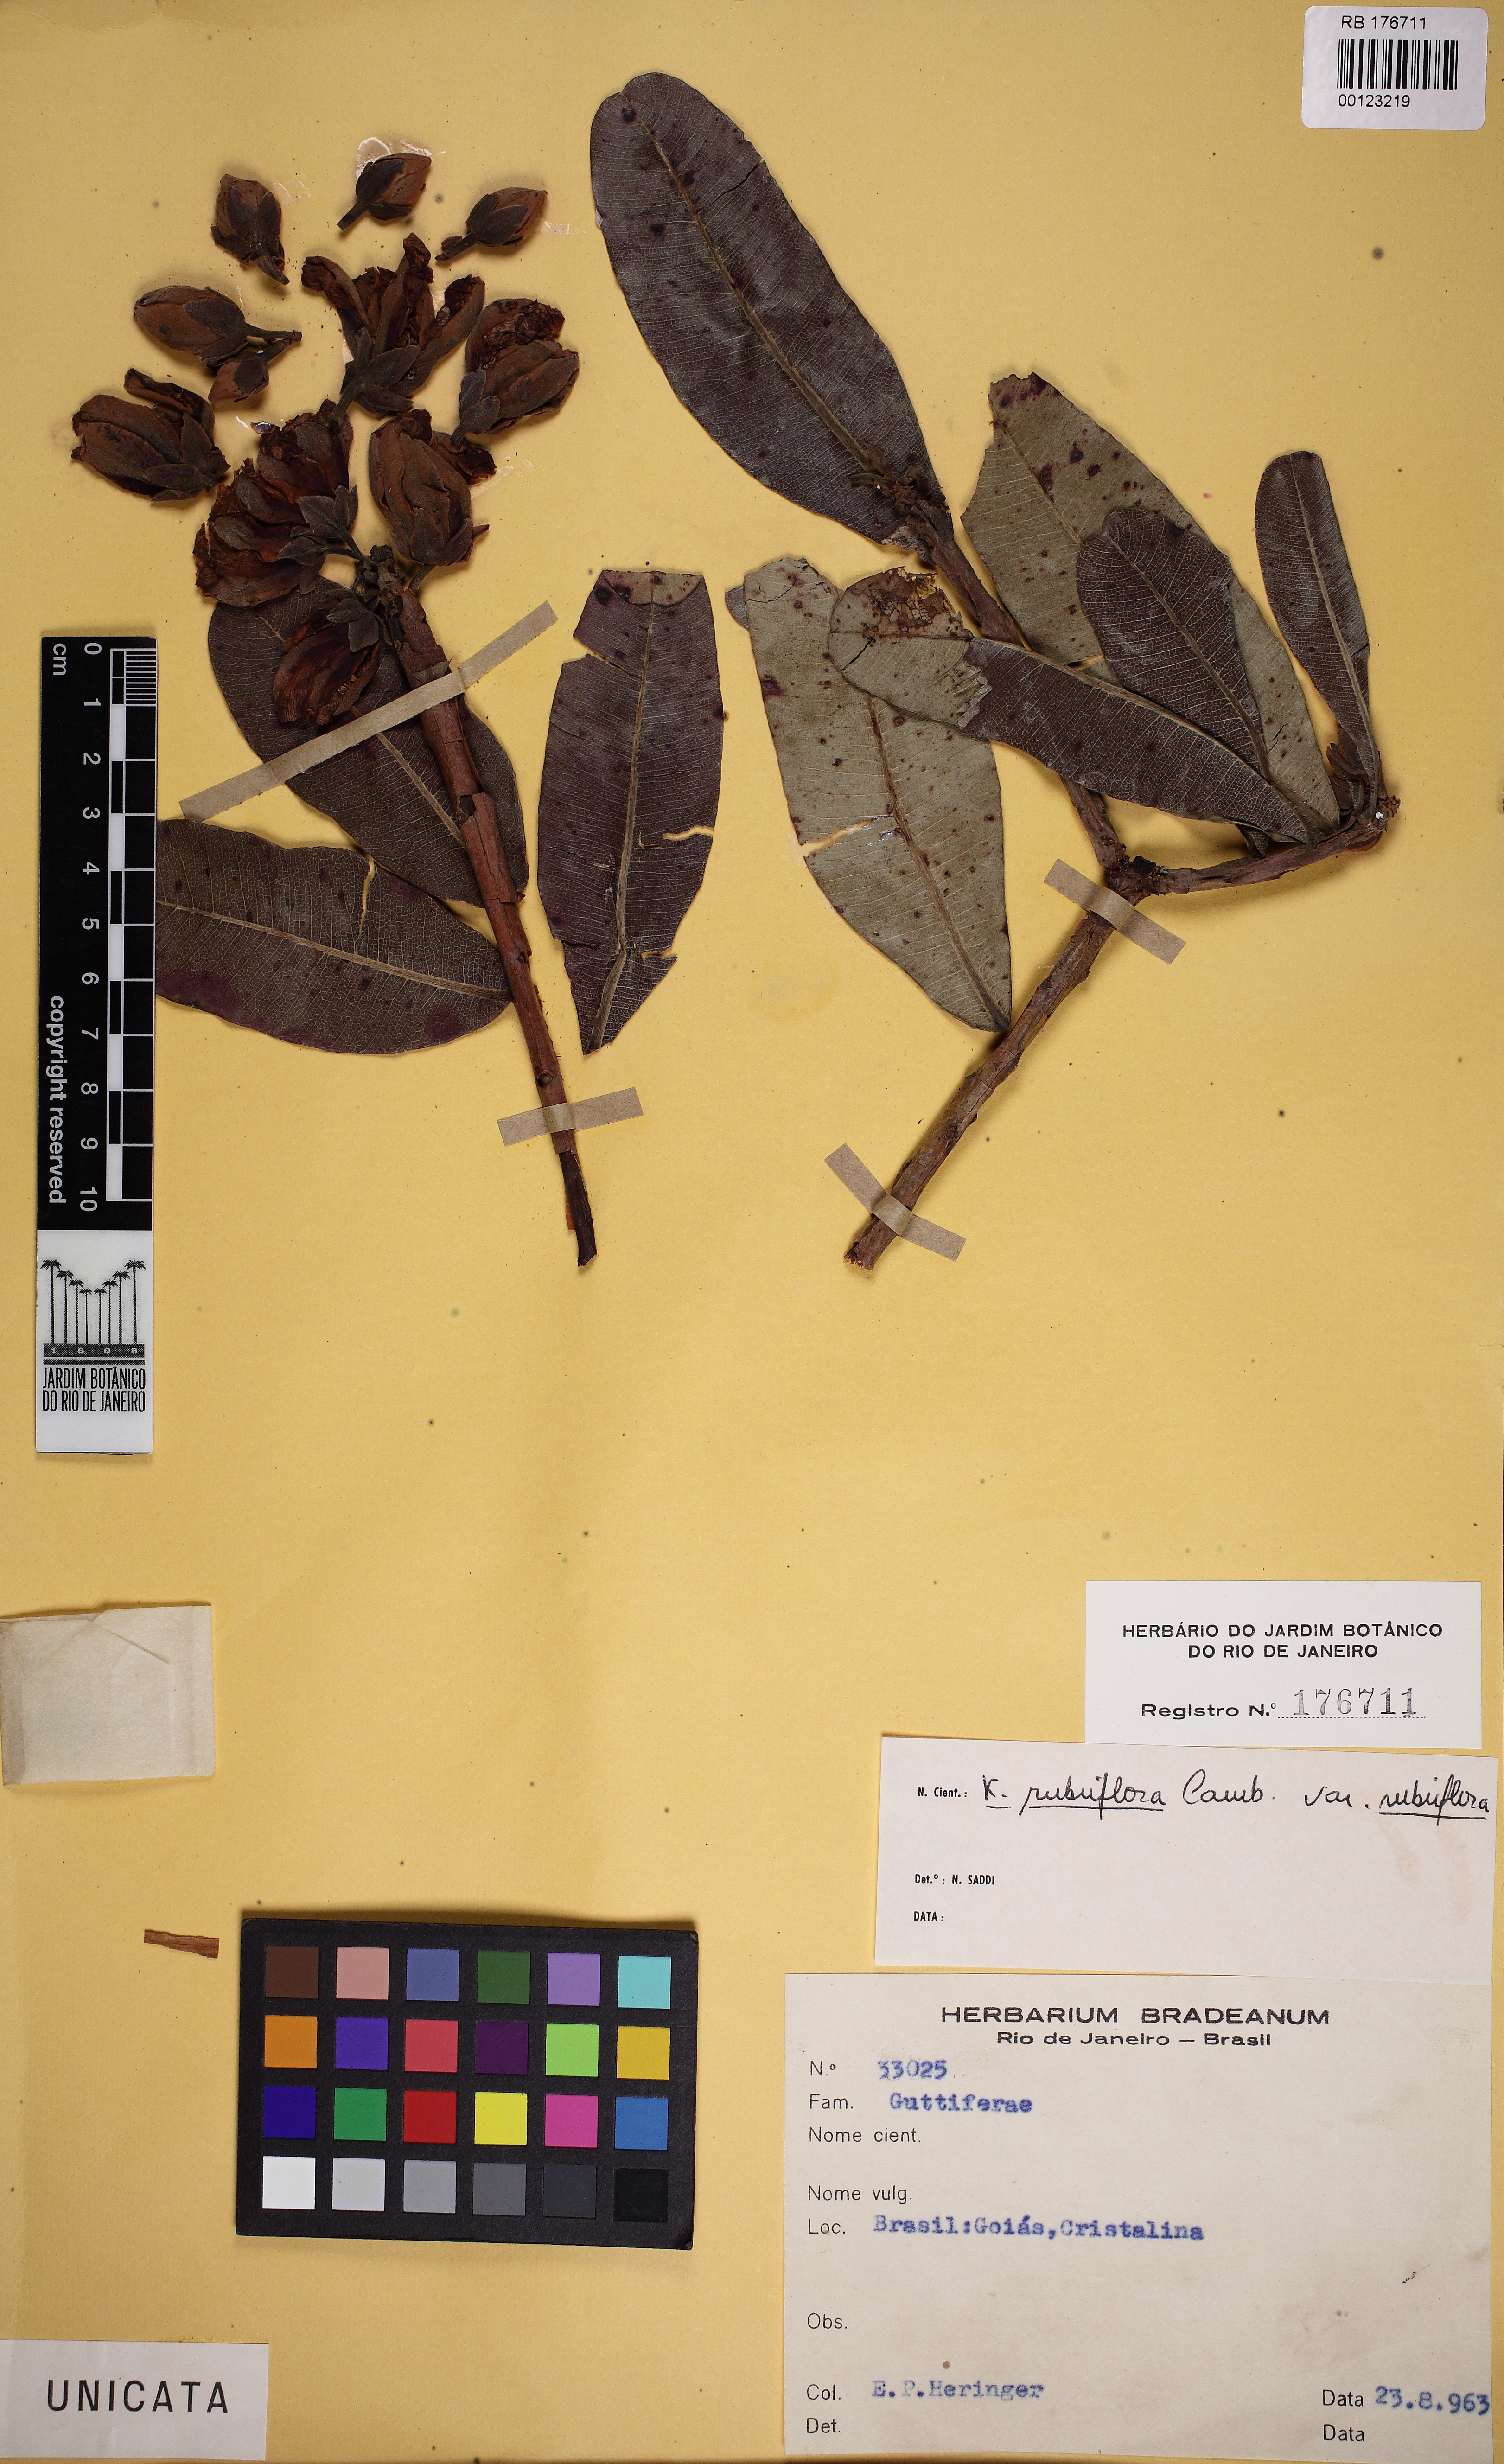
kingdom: Plantae
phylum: Tracheophyta
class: Magnoliopsida
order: Malpighiales
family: Calophyllaceae
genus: Kielmeyera
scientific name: Kielmeyera rubriflora
